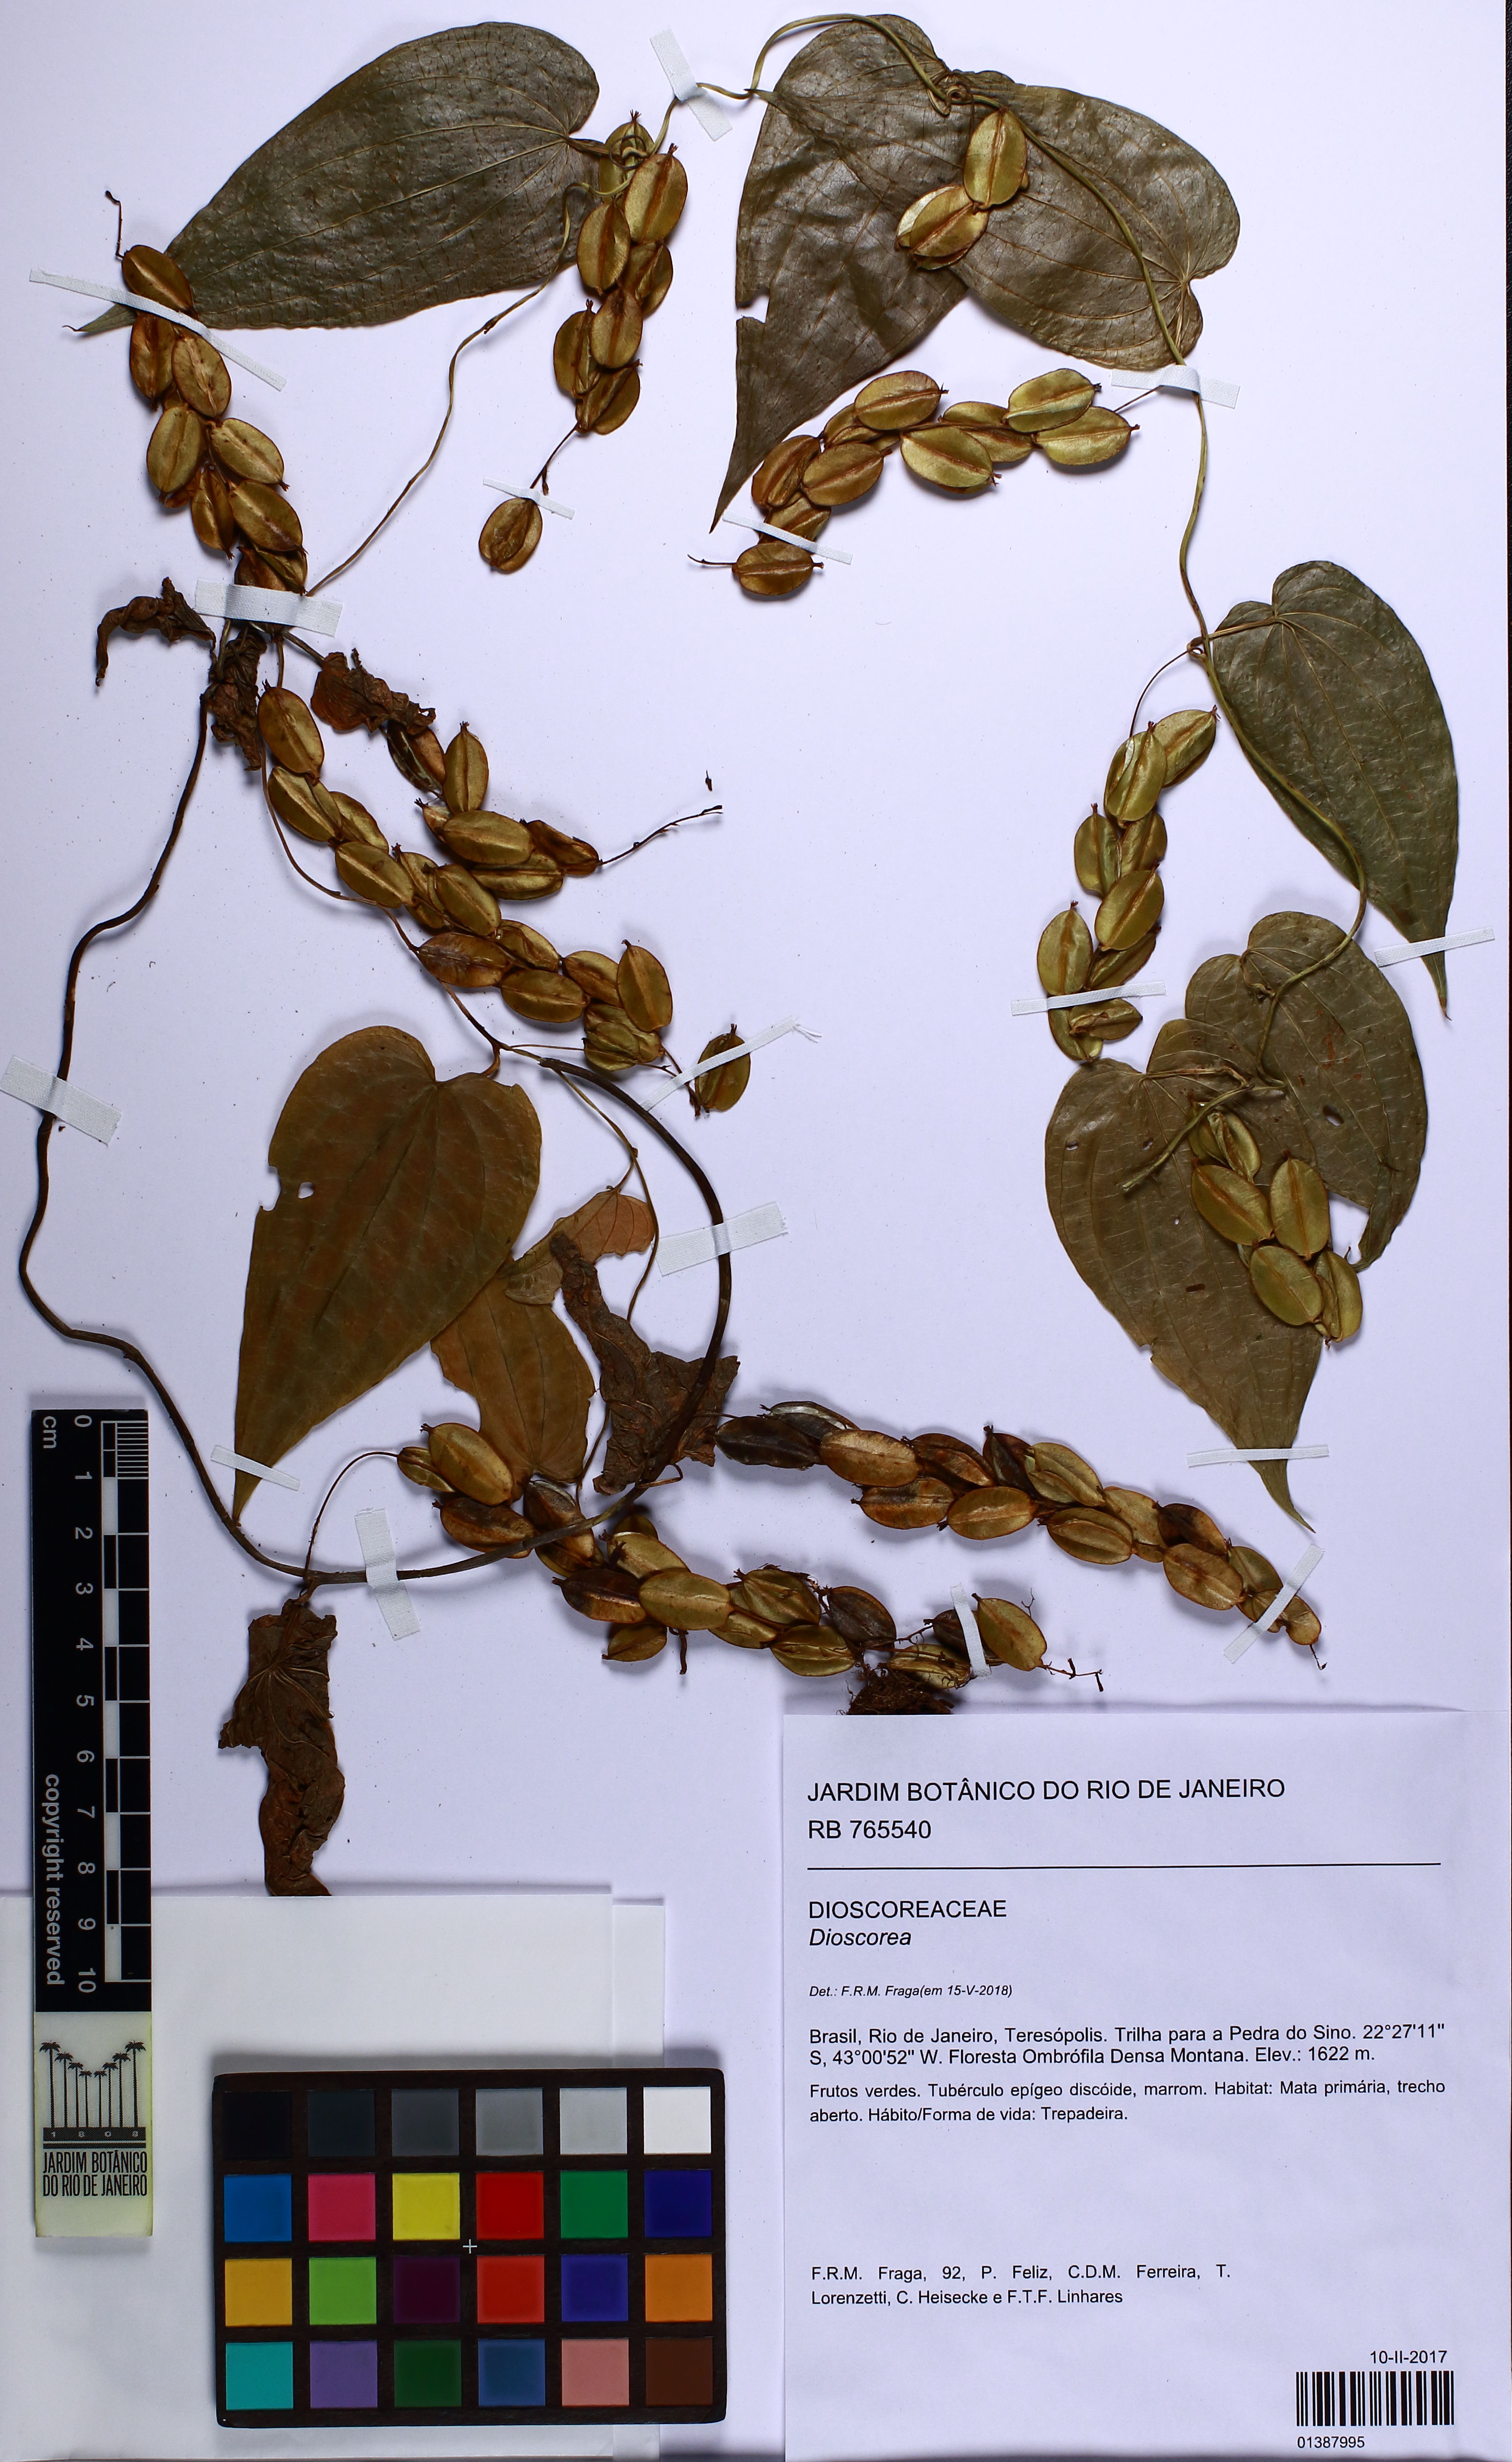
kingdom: Plantae
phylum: Tracheophyta
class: Liliopsida
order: Dioscoreales
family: Dioscoreaceae
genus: Dioscorea
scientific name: Dioscorea
